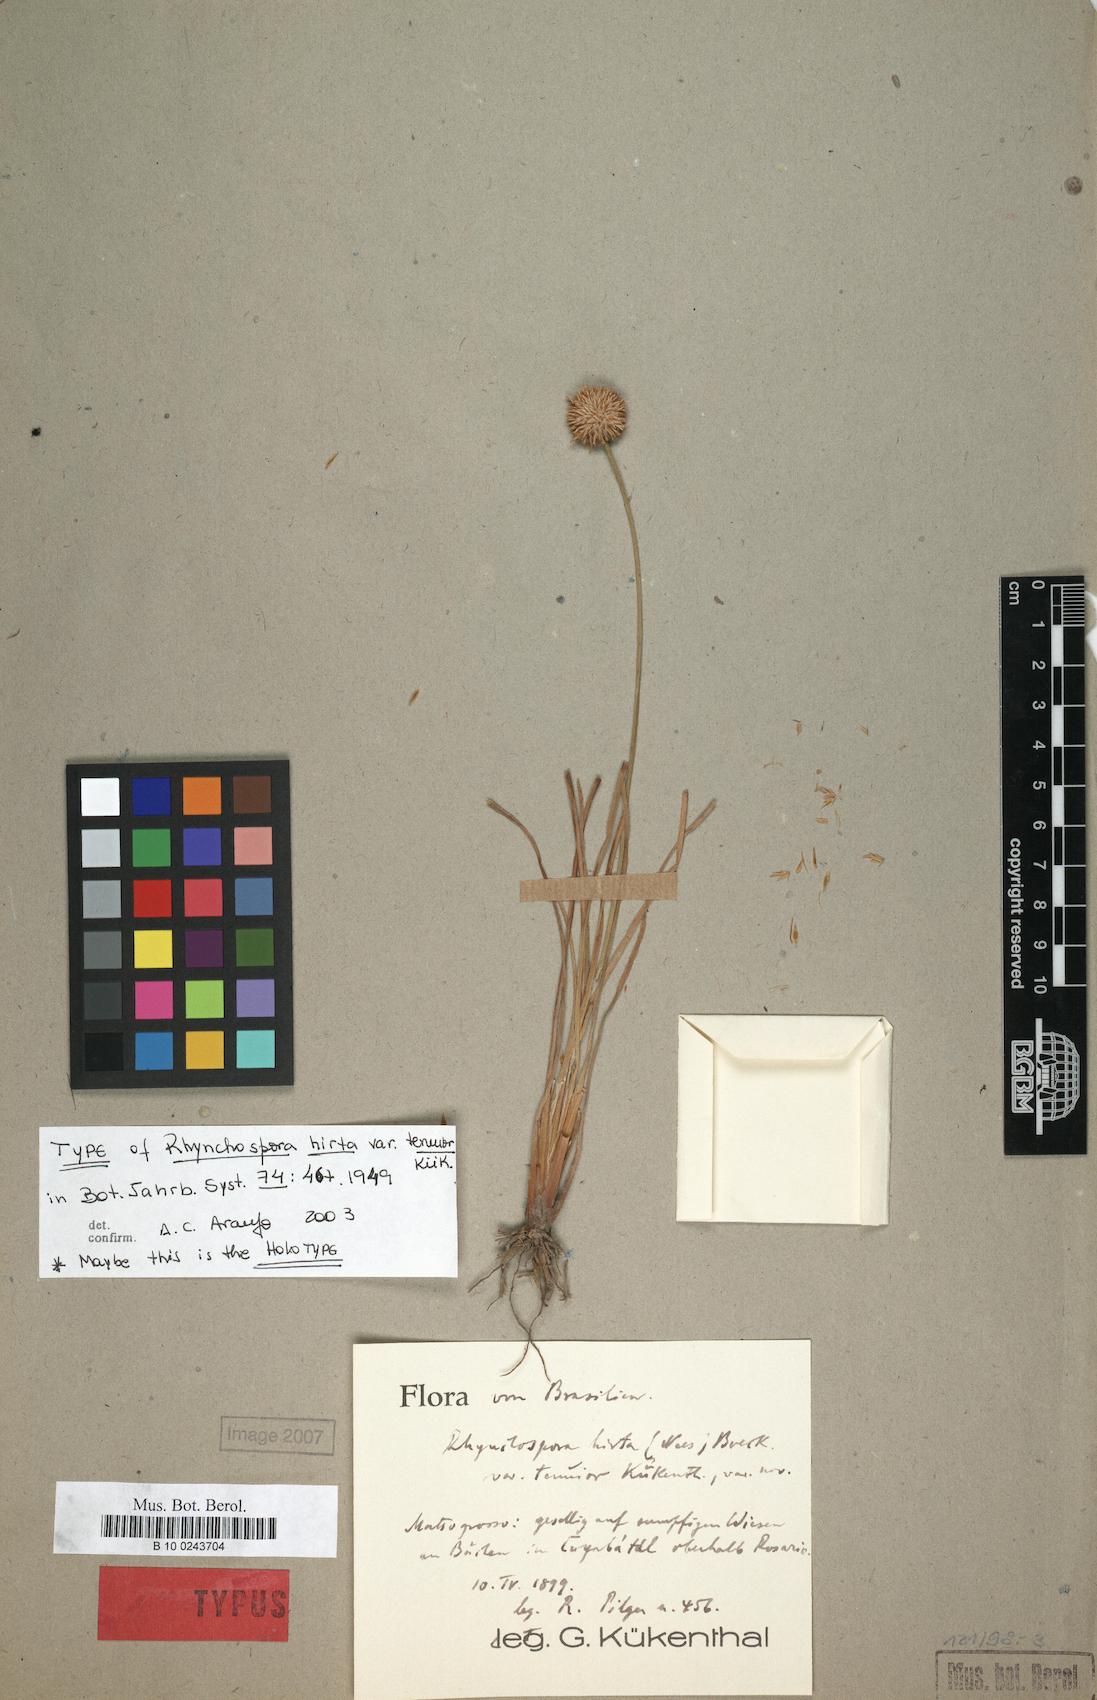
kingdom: Plantae
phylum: Tracheophyta
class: Liliopsida
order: Poales
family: Cyperaceae
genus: Rhynchospora
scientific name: Rhynchospora hirta
